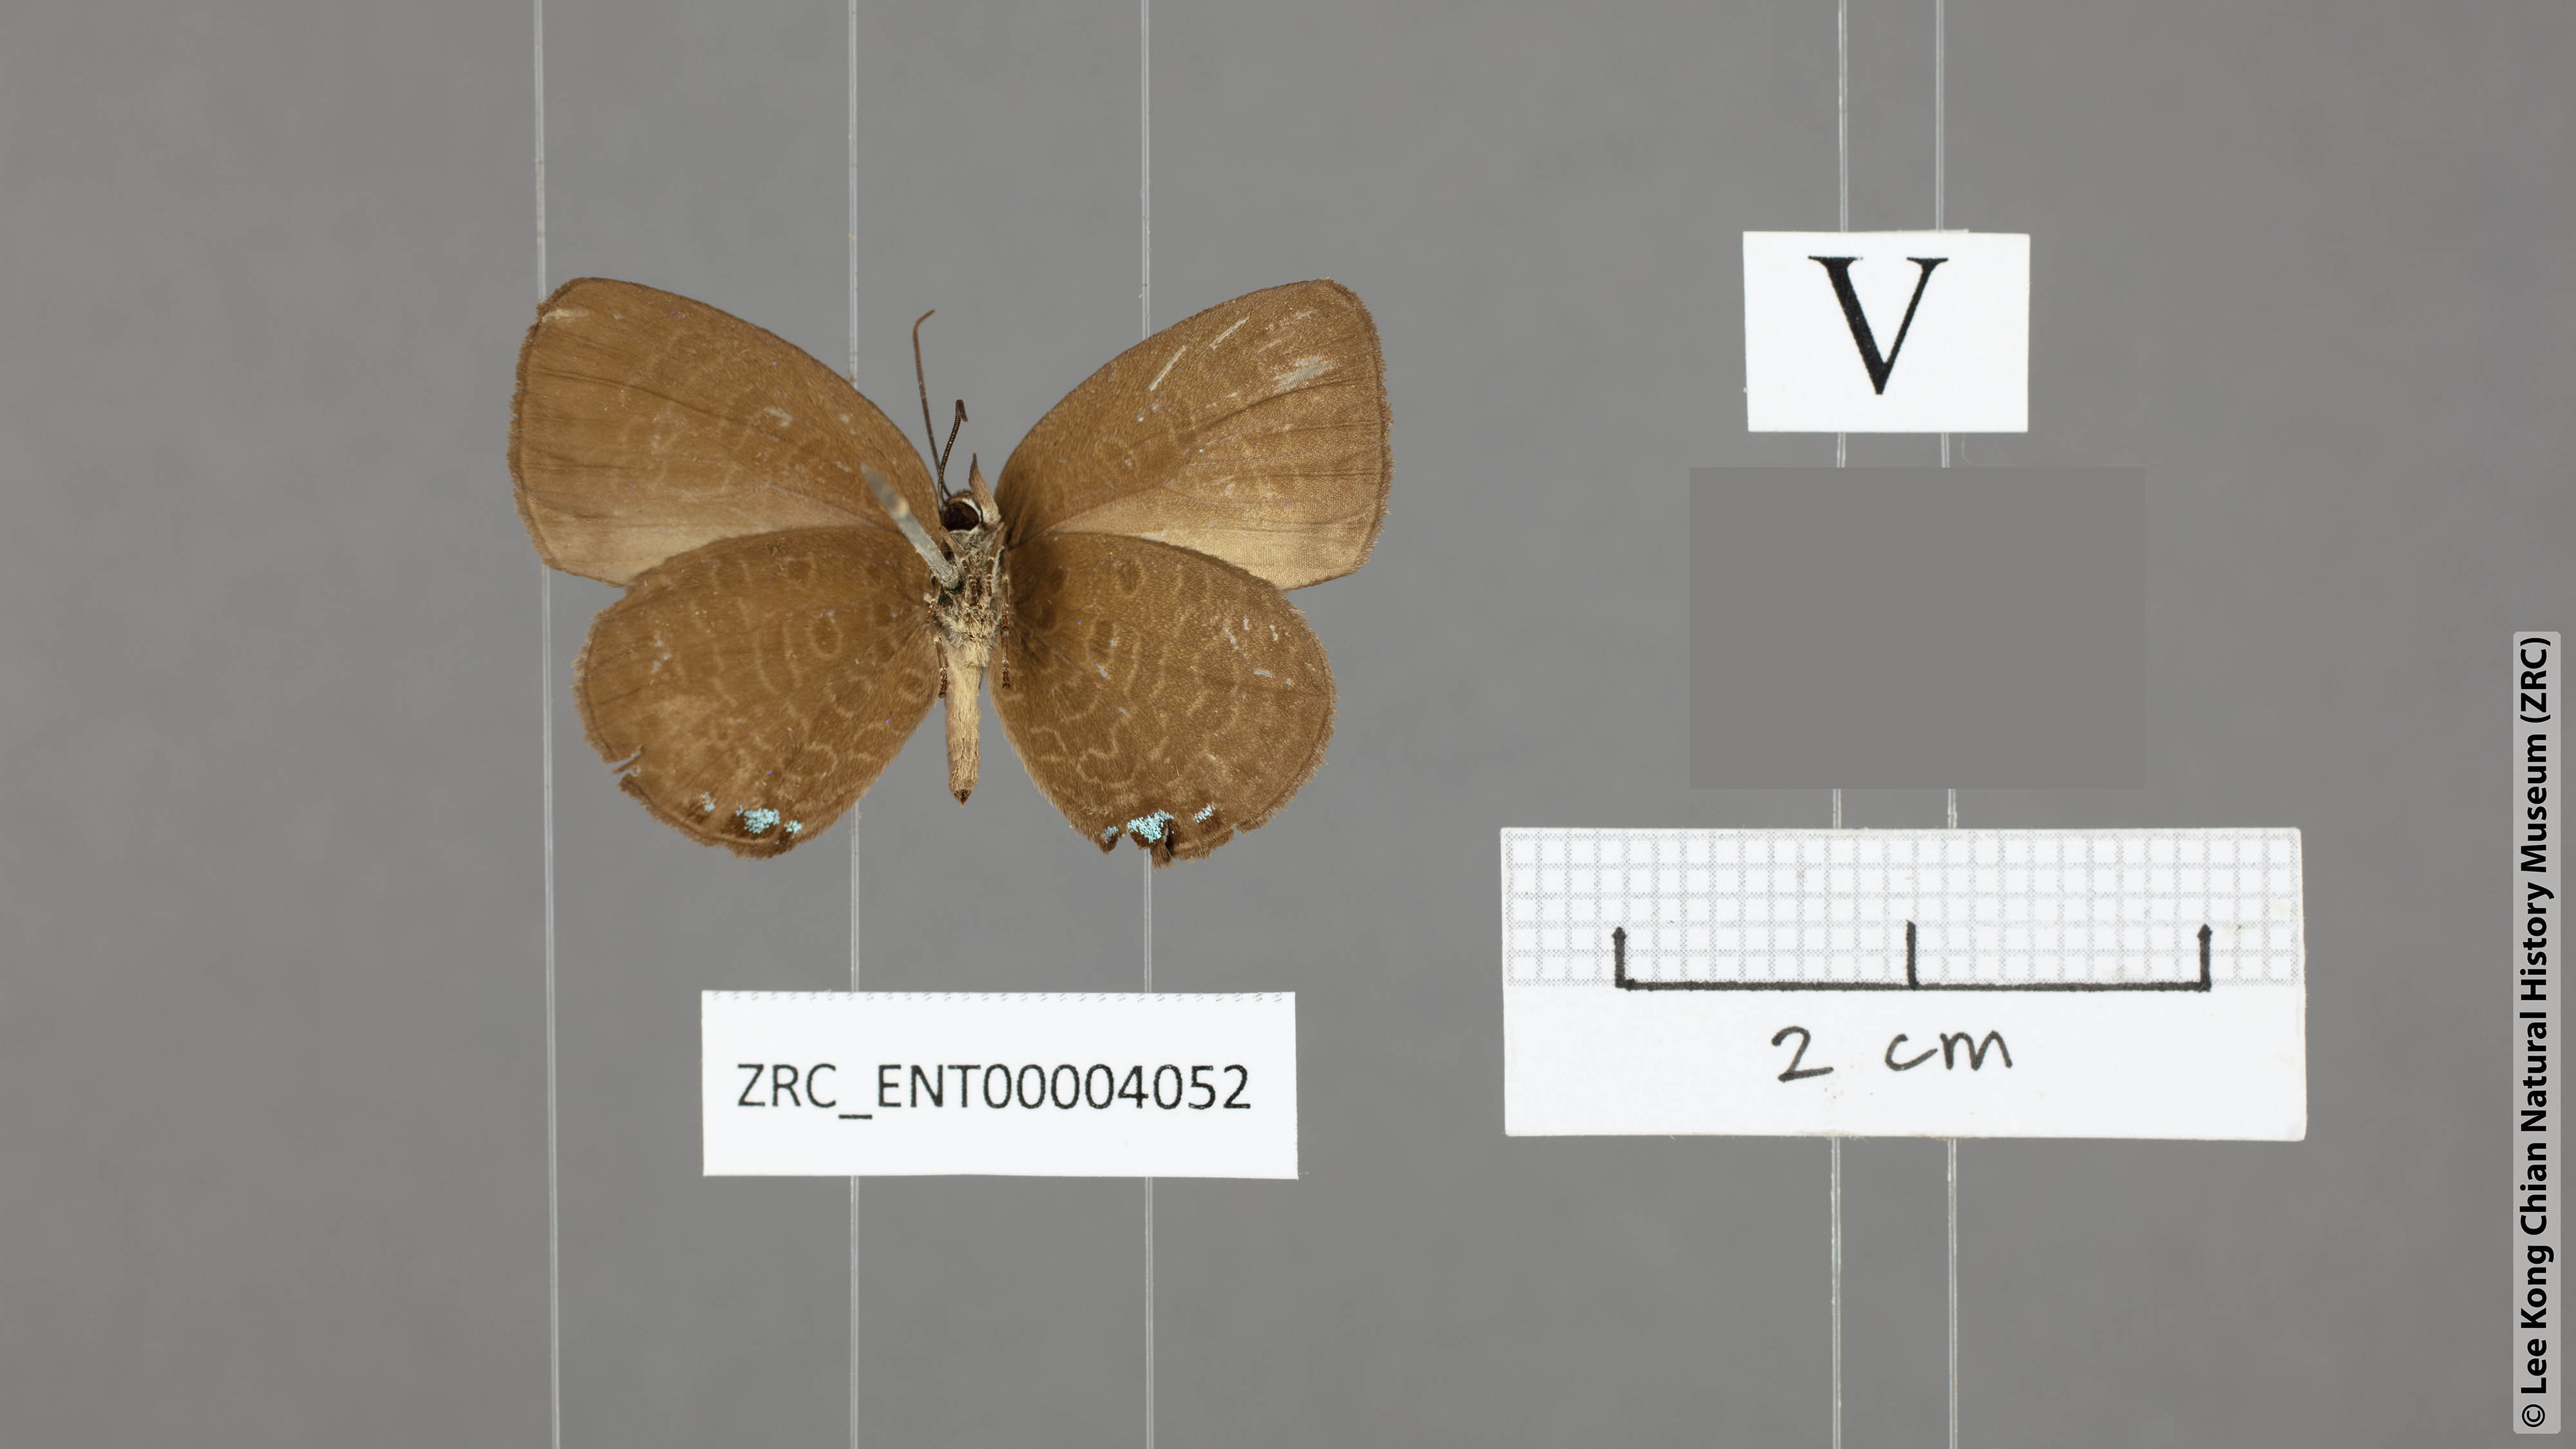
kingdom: Animalia
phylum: Arthropoda
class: Insecta
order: Lepidoptera
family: Lycaenidae
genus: Arhopala
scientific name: Arhopala stubbsi
